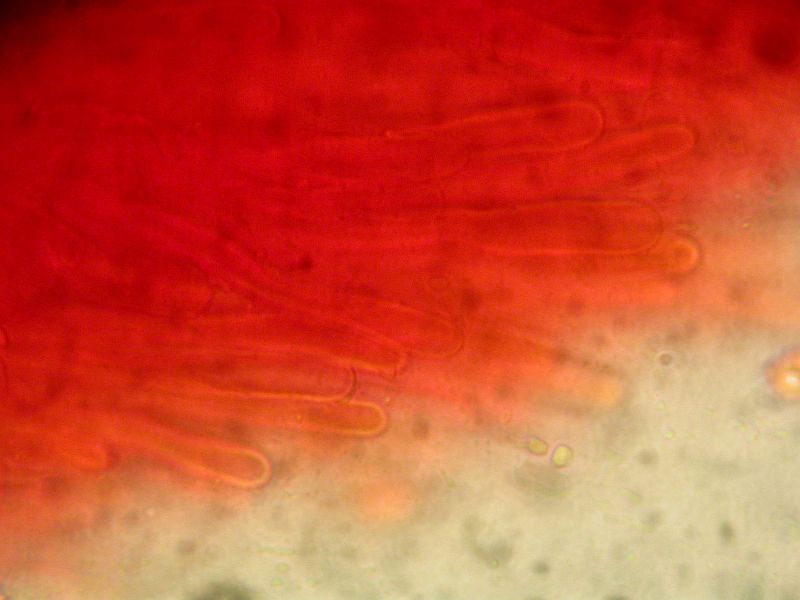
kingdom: Fungi
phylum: Basidiomycota
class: Agaricomycetes
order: Hymenochaetales
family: Hyphodontiaceae
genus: Hyphodontia
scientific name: Hyphodontia barba-jovis
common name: skægget tandsvamp
